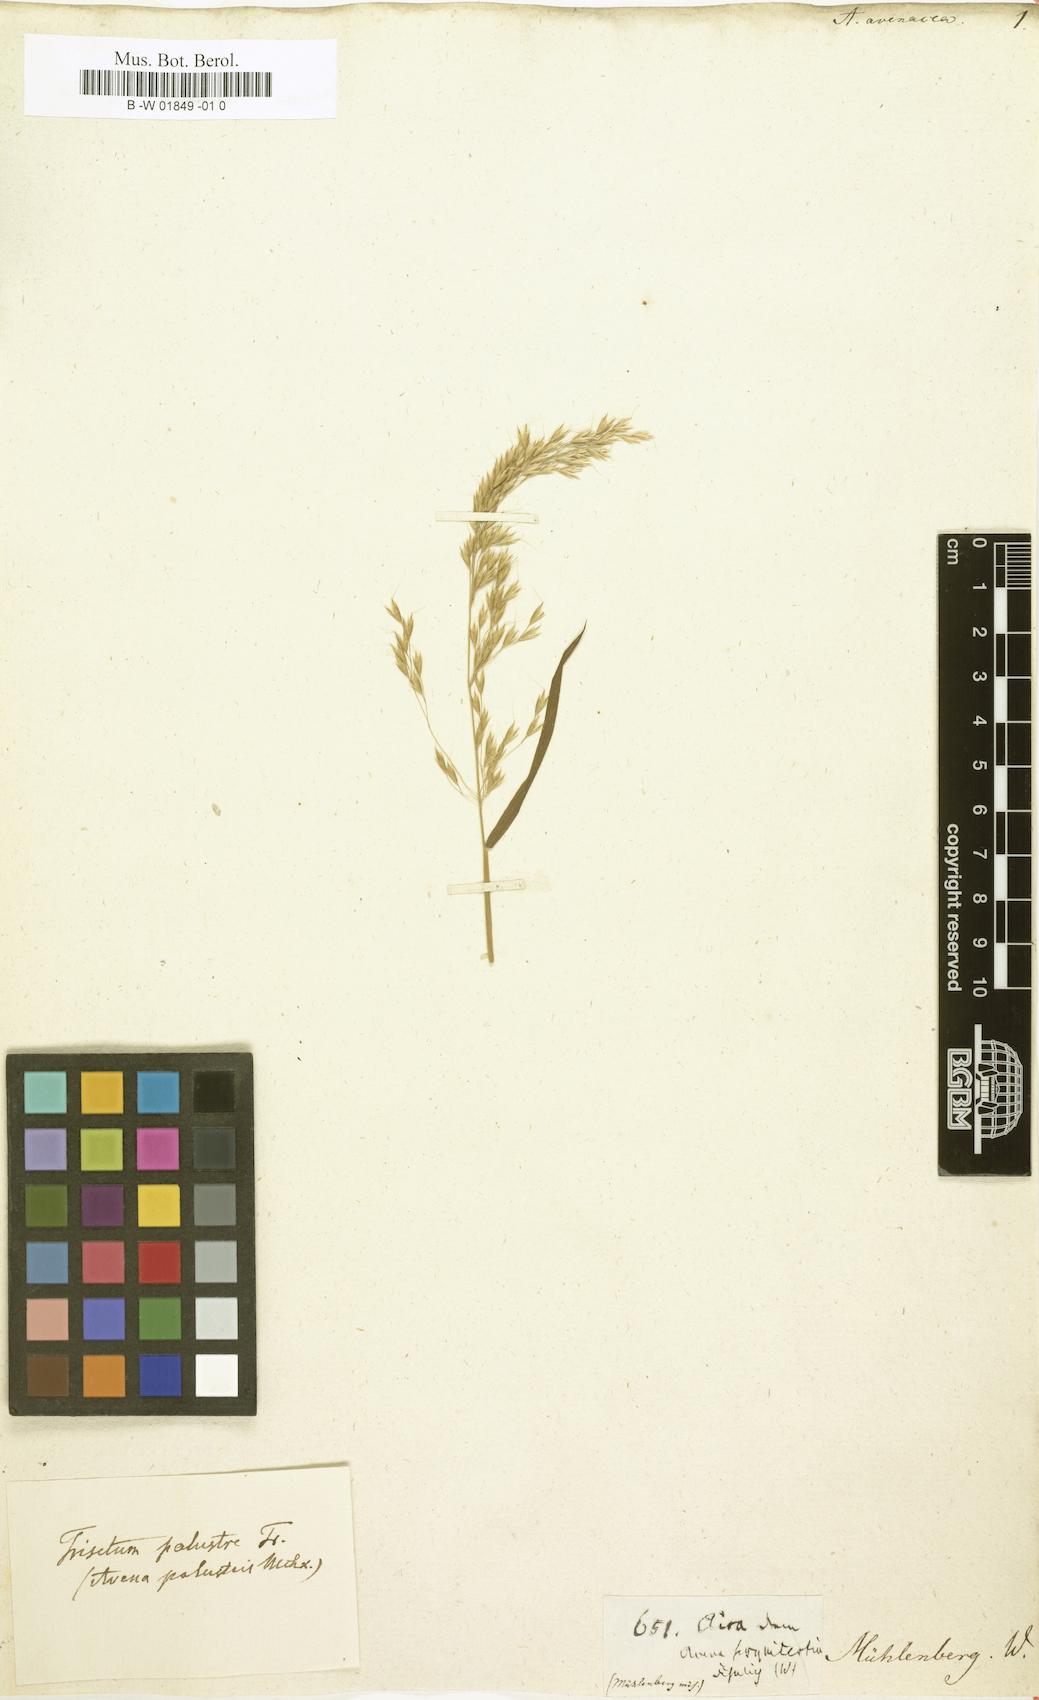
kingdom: Plantae
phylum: Tracheophyta
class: Liliopsida
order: Poales
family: Poaceae
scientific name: Poaceae
